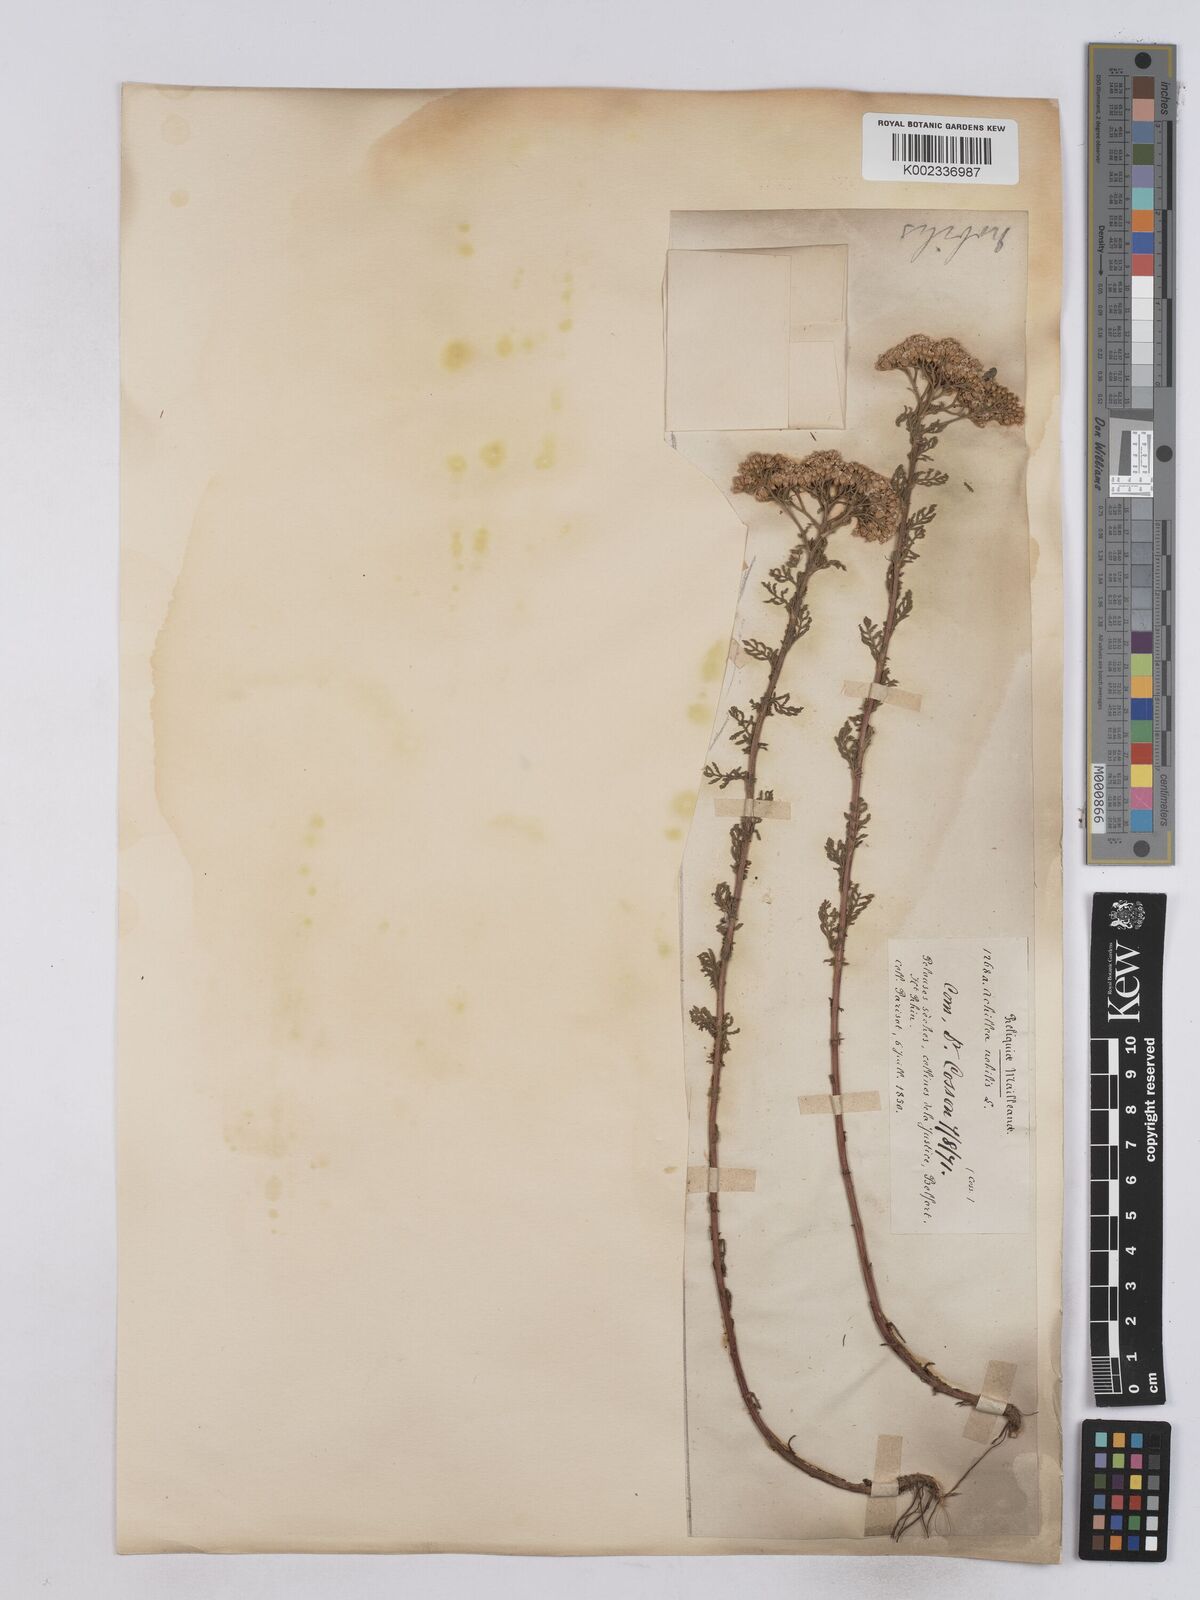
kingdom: Plantae
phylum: Tracheophyta
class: Magnoliopsida
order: Asterales
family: Asteraceae
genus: Achillea
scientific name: Achillea nobilis
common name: Noble yarrow
